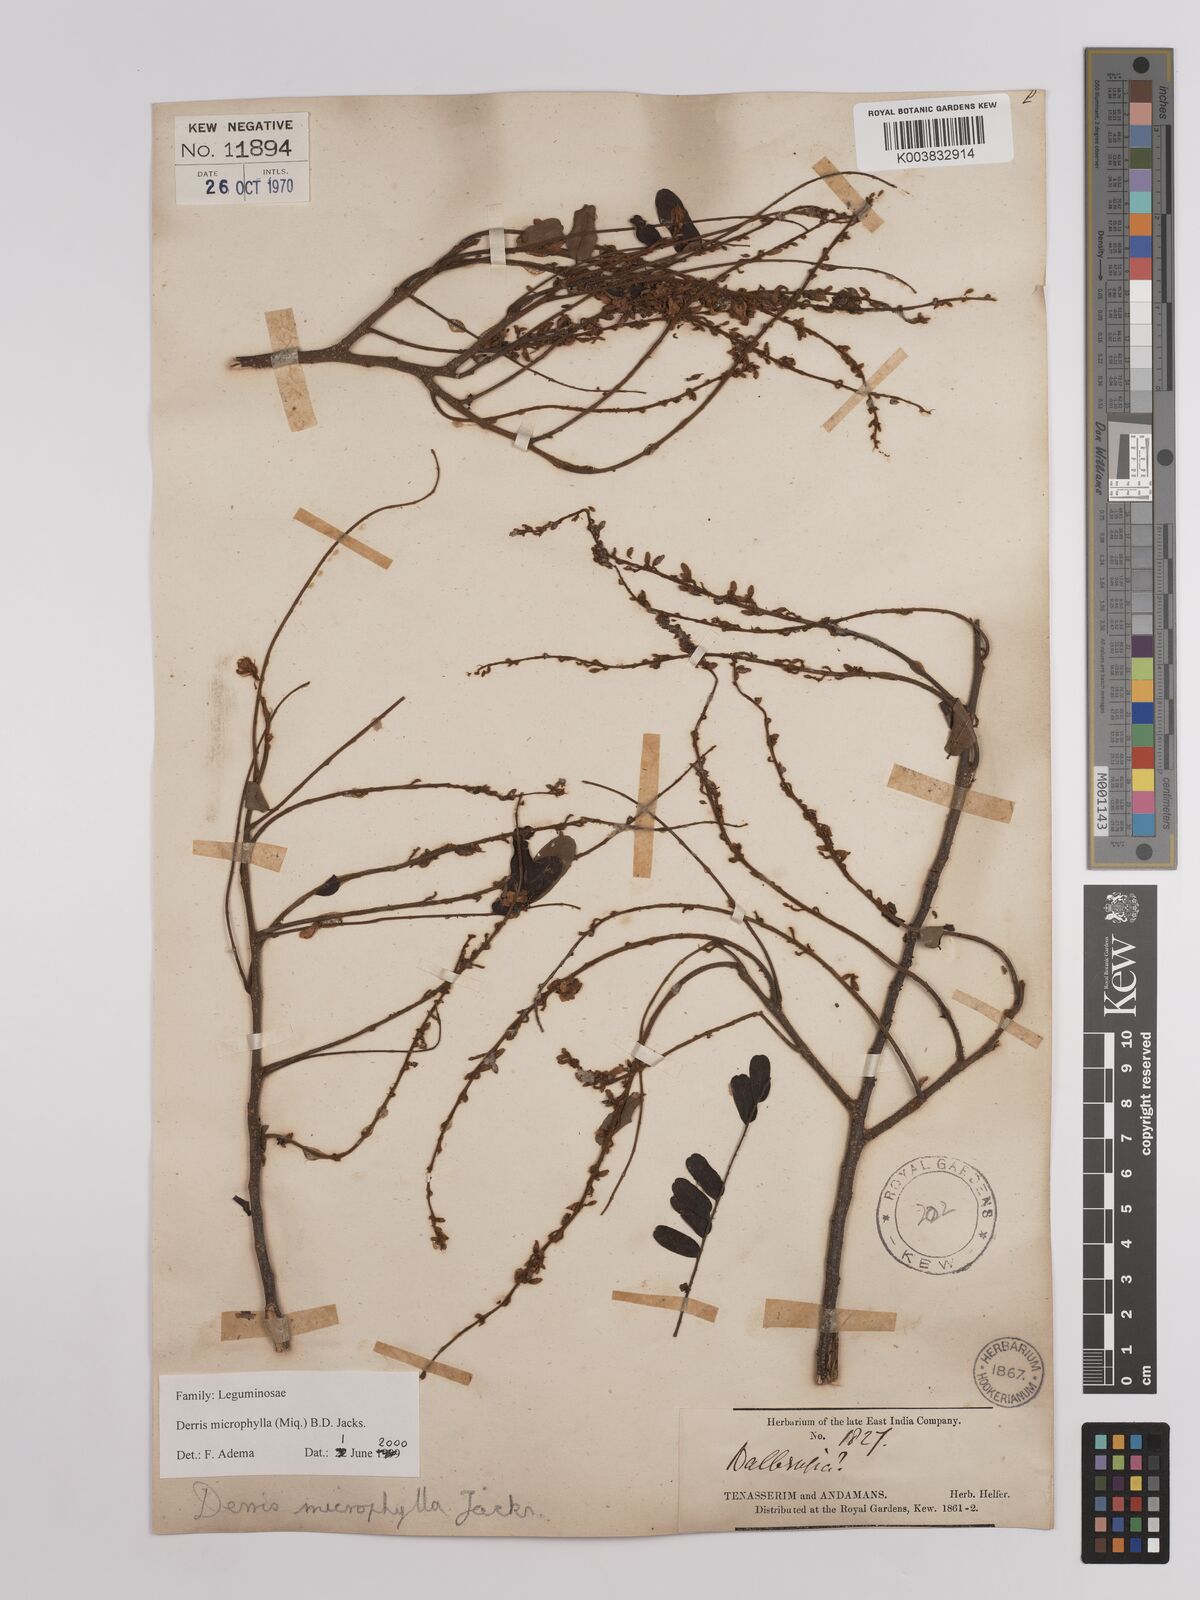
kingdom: Plantae
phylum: Tracheophyta
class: Magnoliopsida
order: Fabales
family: Fabaceae
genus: Brachypterum
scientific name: Brachypterum microphyllum
